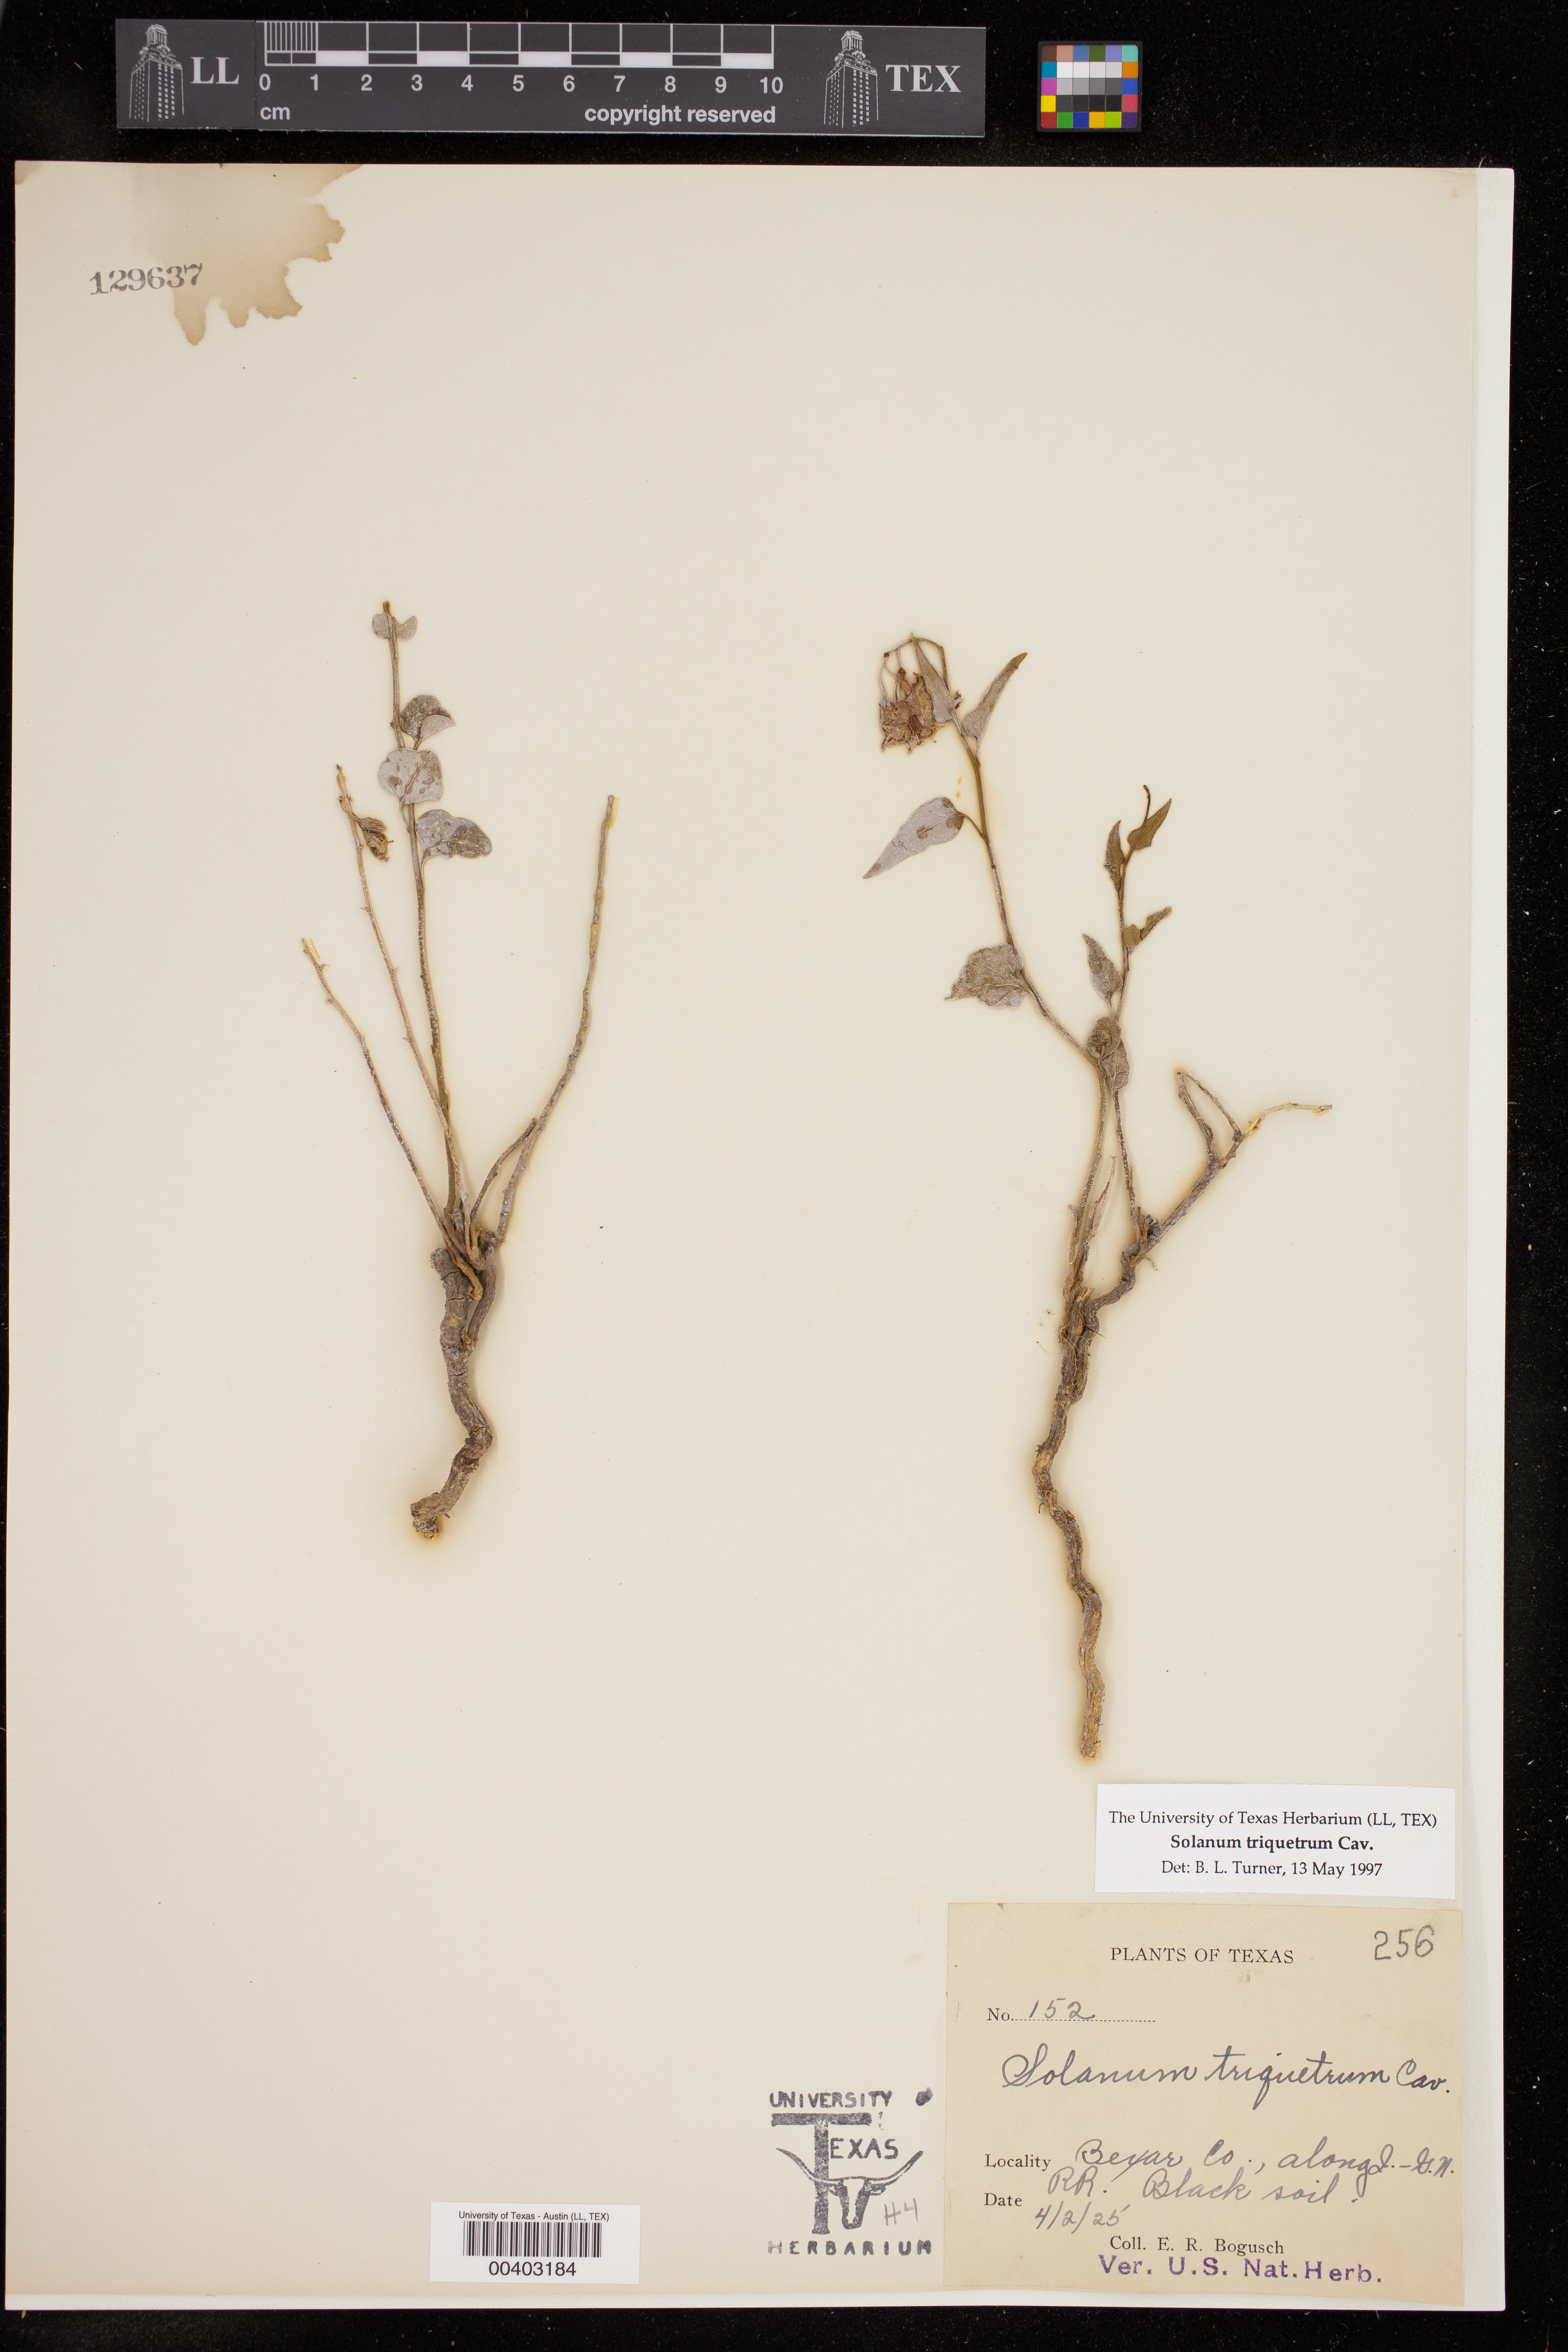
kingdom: Plantae
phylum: Tracheophyta
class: Magnoliopsida
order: Solanales
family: Solanaceae
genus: Solanum
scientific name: Solanum triquetrum
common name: Texas nightshade
